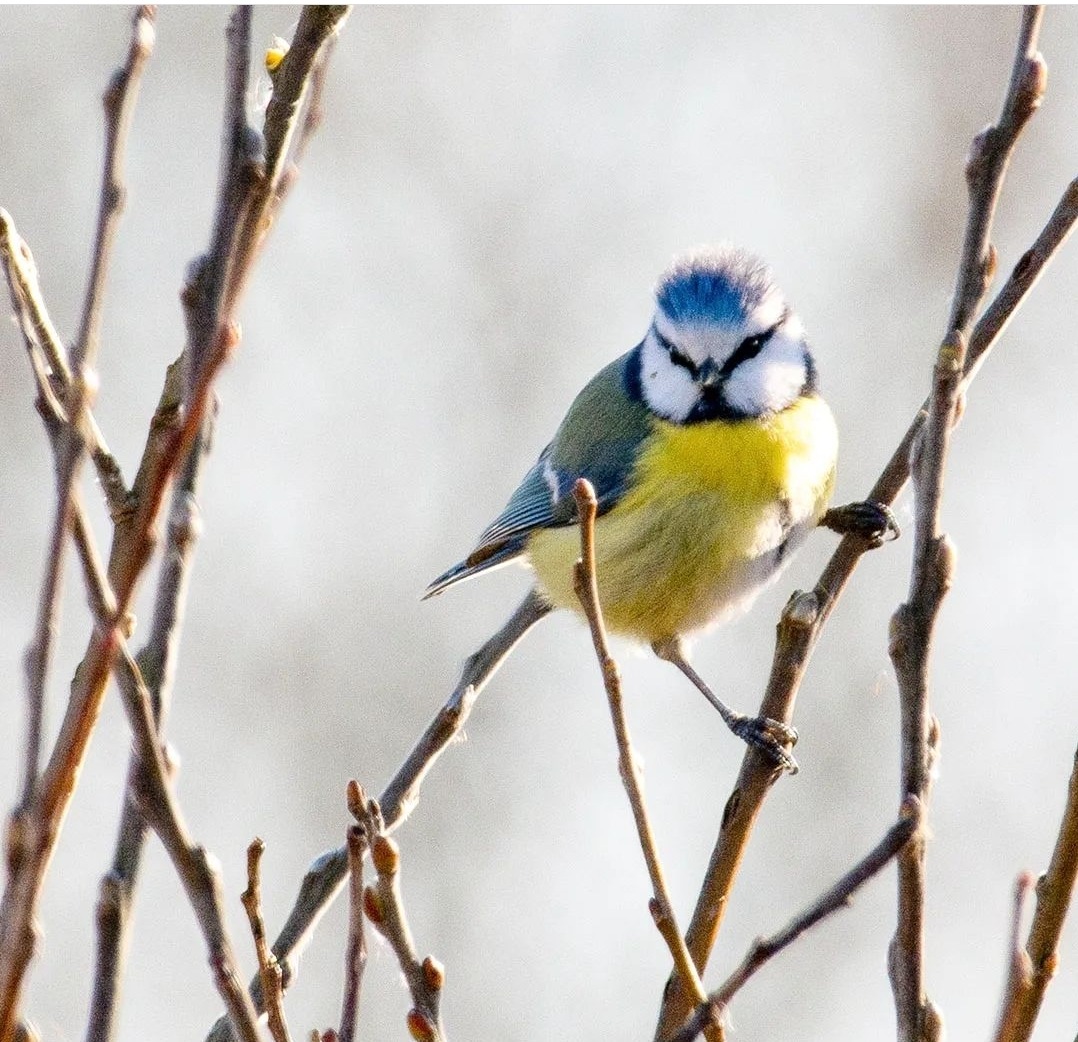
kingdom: Animalia
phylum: Chordata
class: Aves
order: Passeriformes
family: Paridae
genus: Cyanistes
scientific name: Cyanistes caeruleus
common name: Blåmejse
